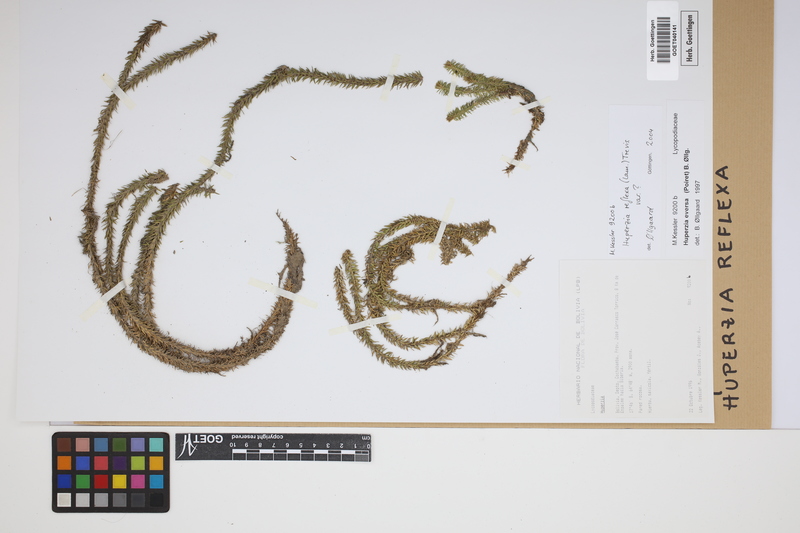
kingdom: Plantae
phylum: Tracheophyta
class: Lycopodiopsida
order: Lycopodiales
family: Lycopodiaceae
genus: Phlegmariurus
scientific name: Phlegmariurus reflexus
